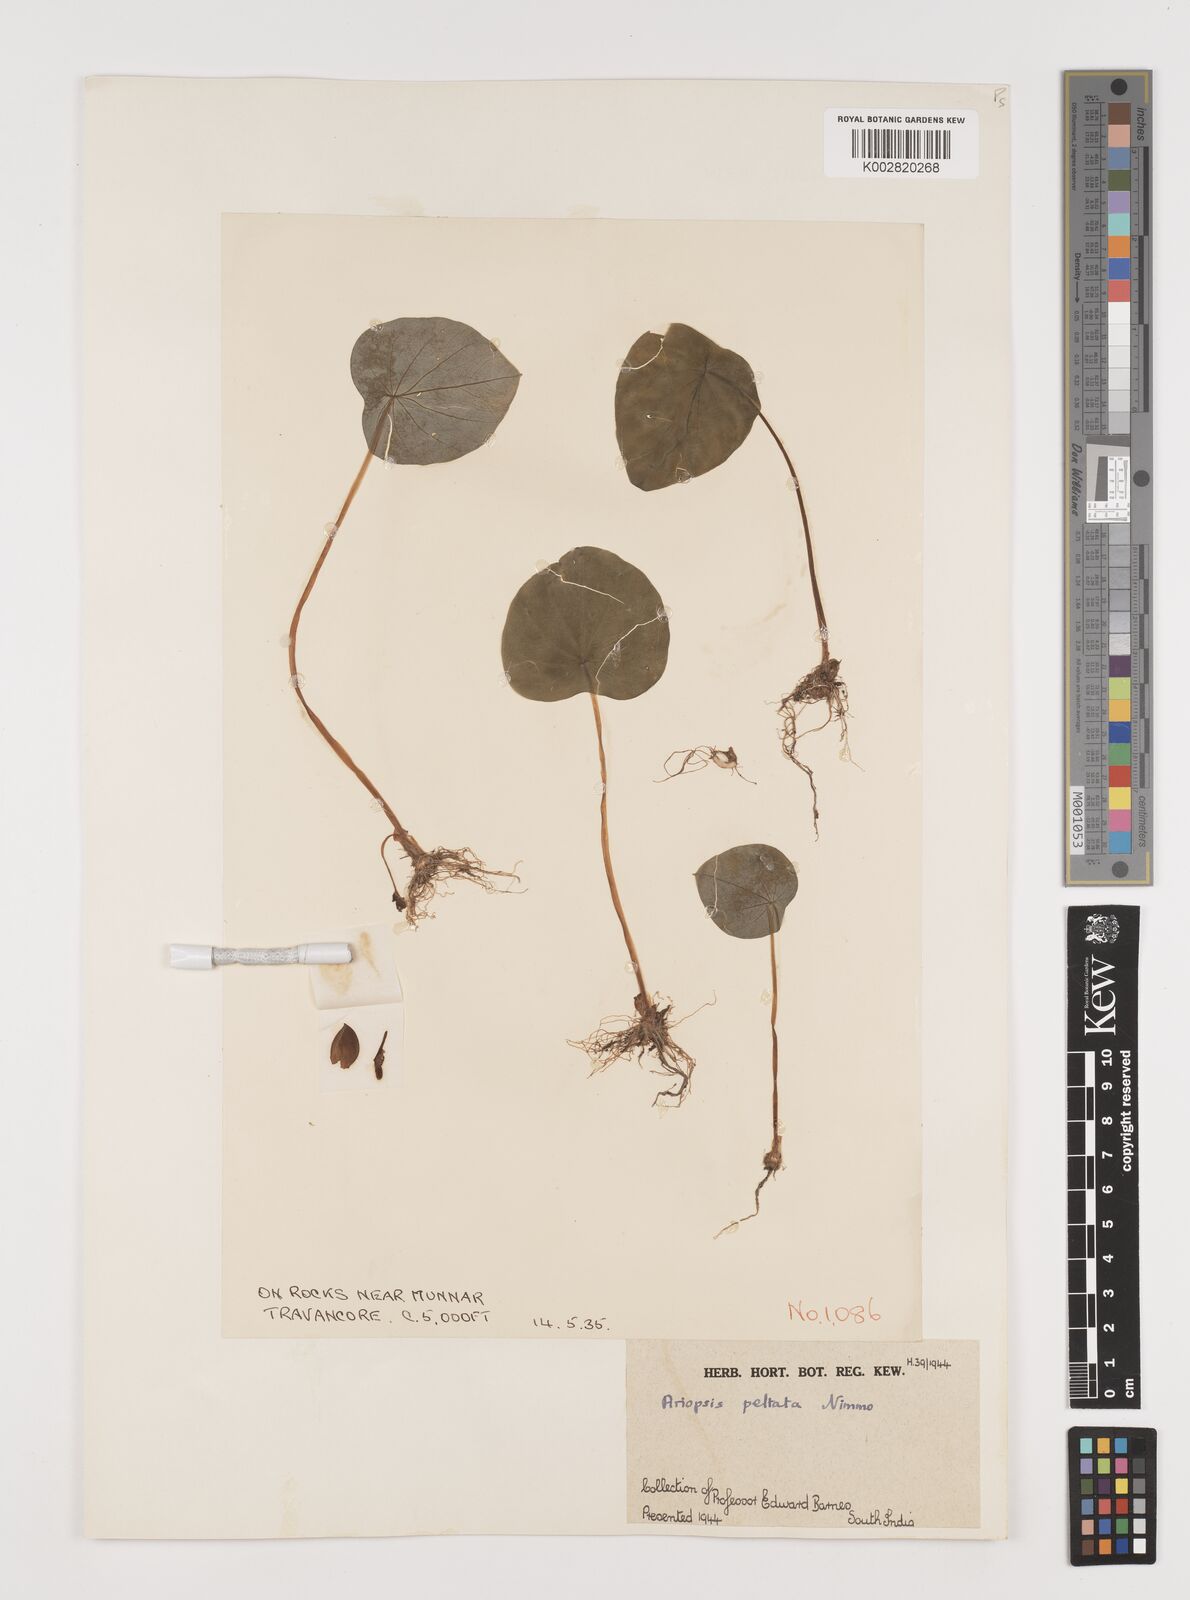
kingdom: Plantae
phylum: Tracheophyta
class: Liliopsida
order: Alismatales
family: Araceae
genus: Ariopsis
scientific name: Ariopsis peltata
